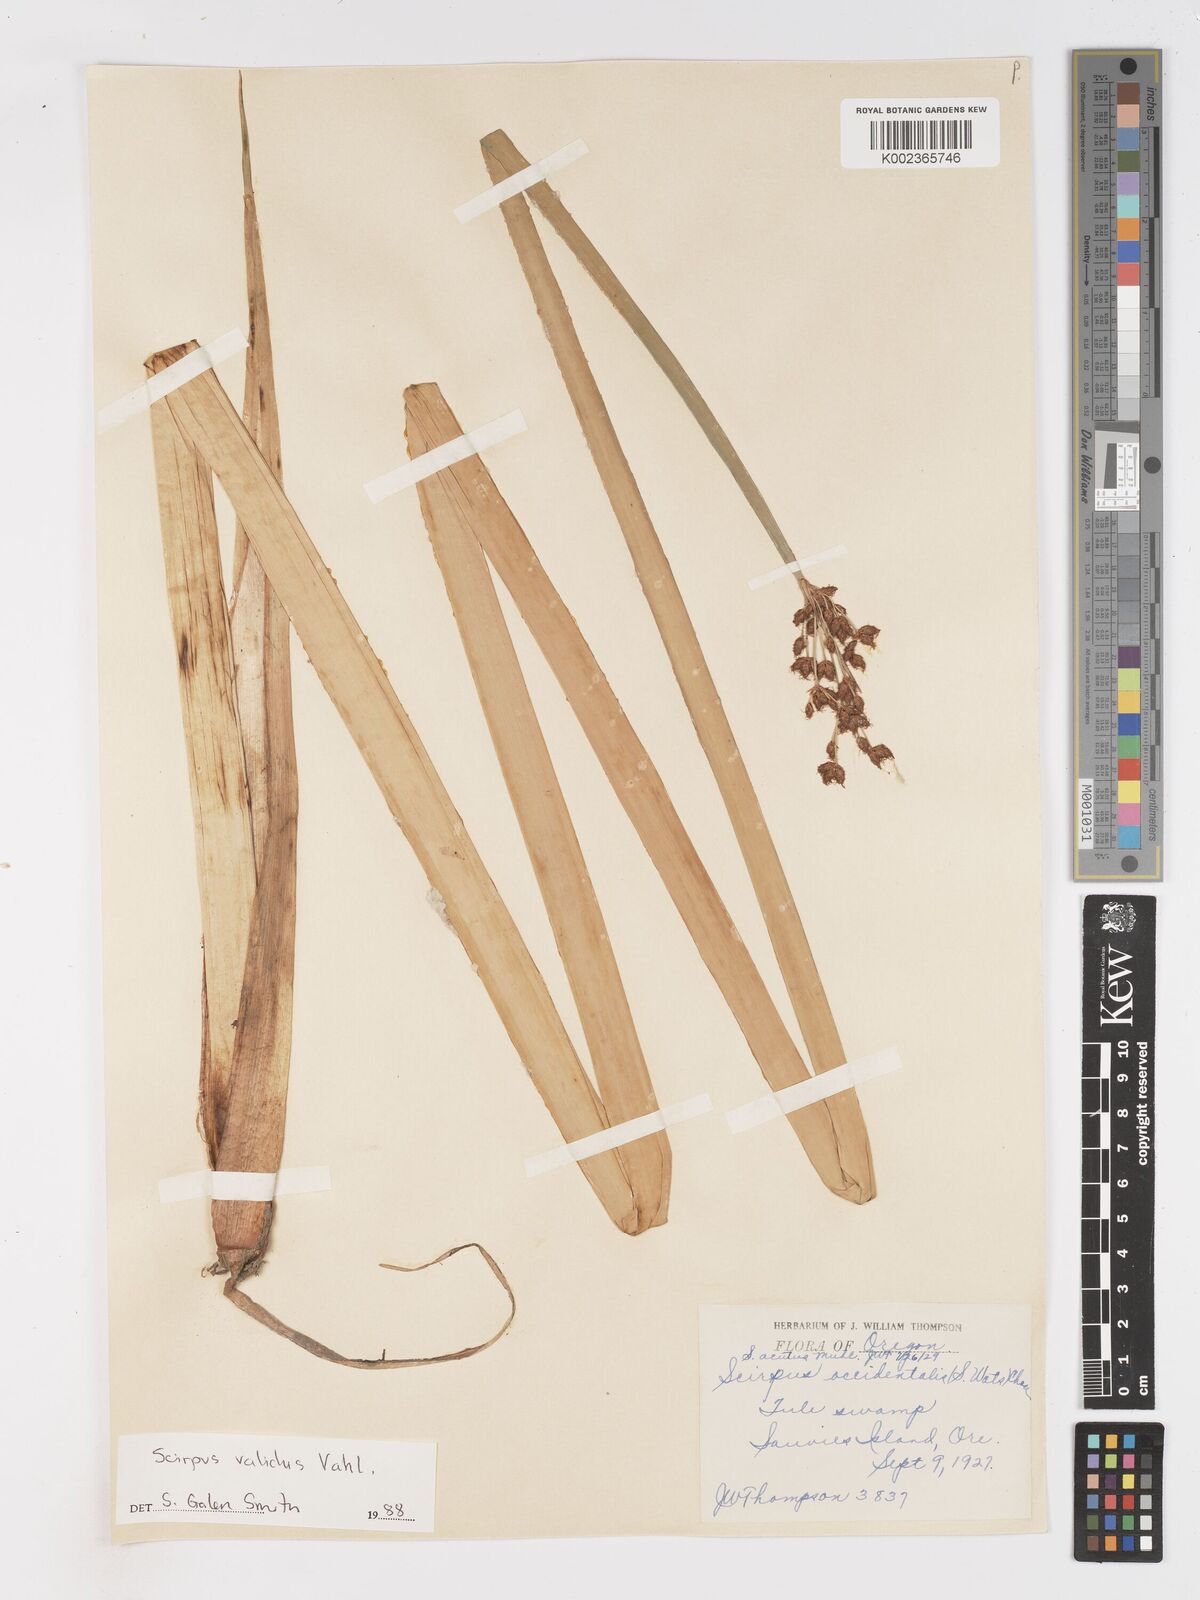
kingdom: Plantae
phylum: Tracheophyta
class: Liliopsida
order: Poales
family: Cyperaceae
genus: Schoenoplectus
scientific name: Schoenoplectus
